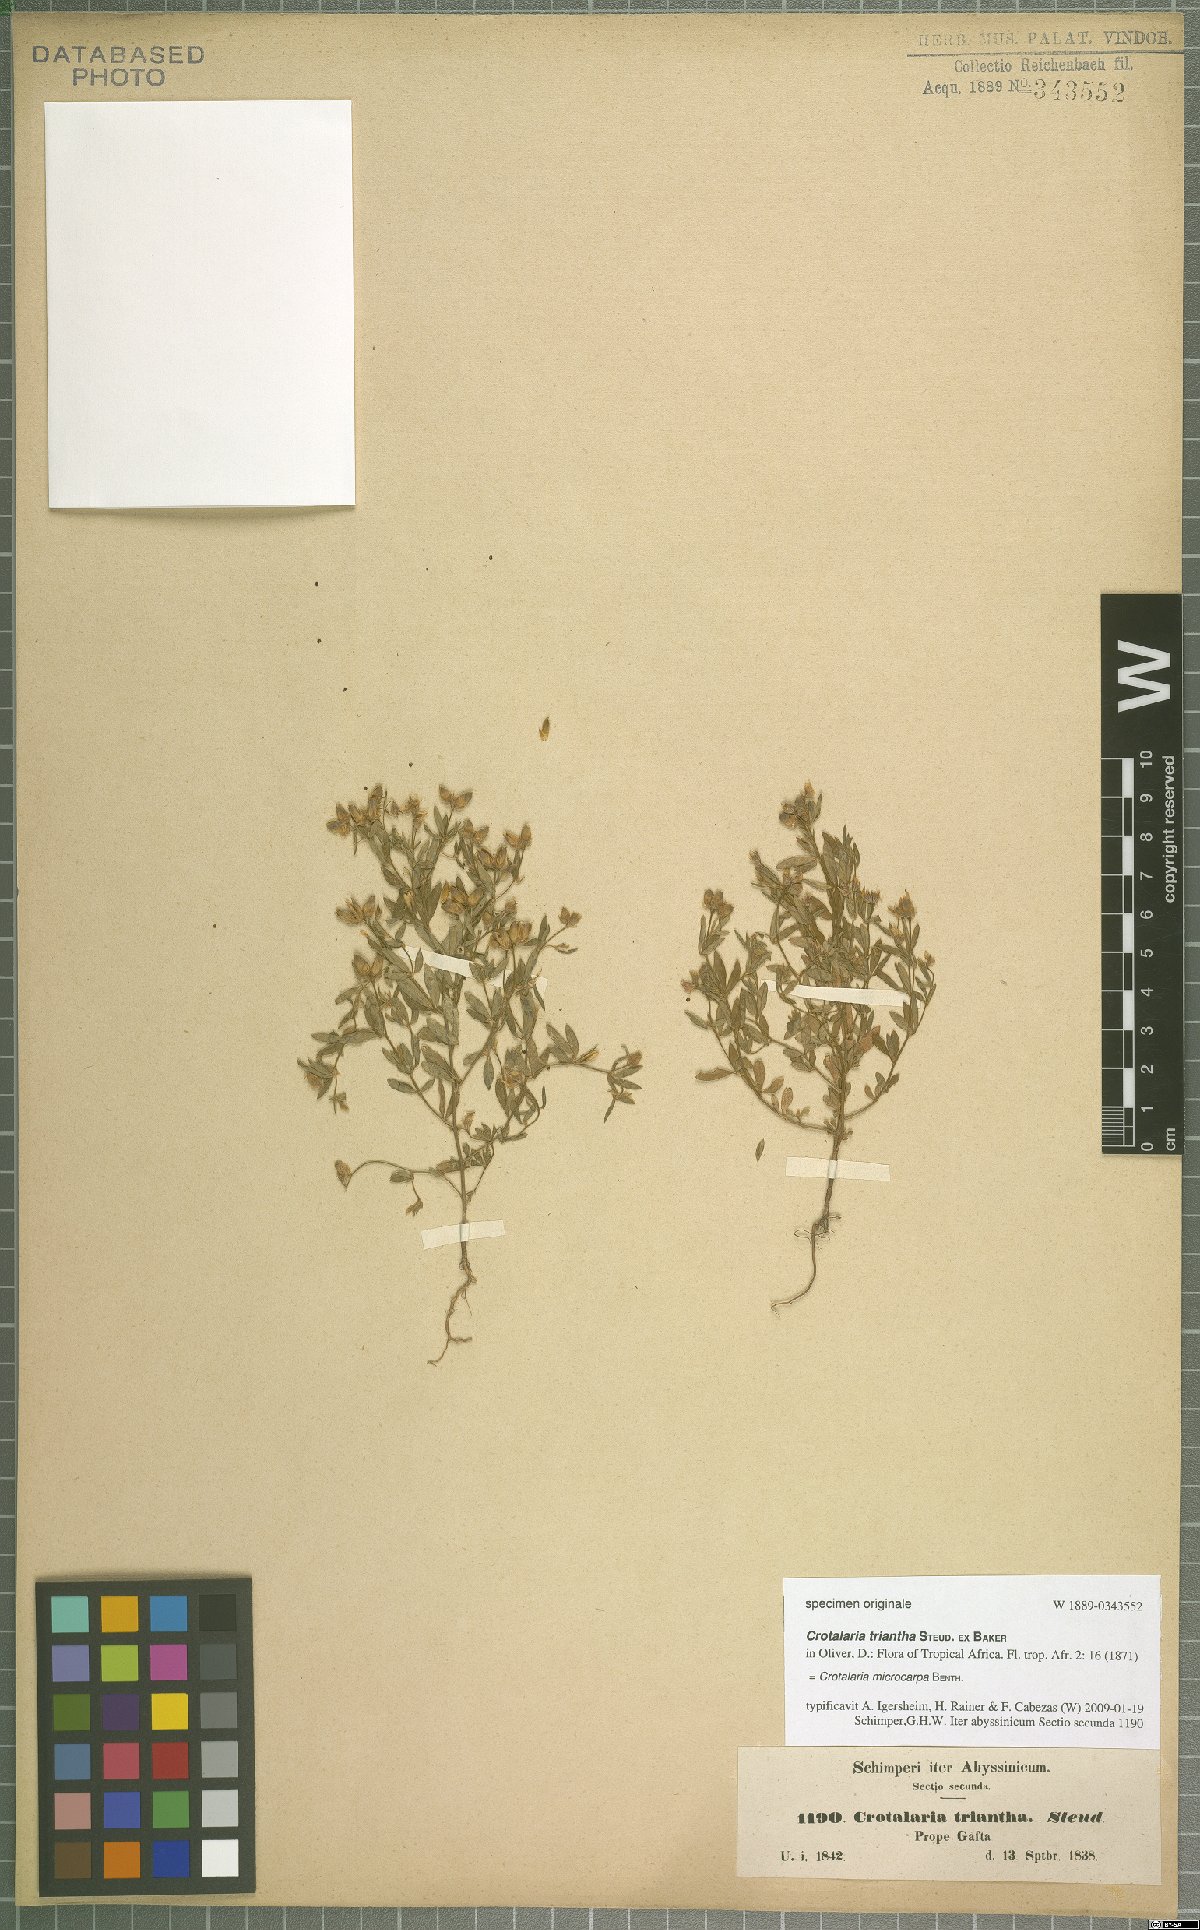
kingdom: Plantae
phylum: Tracheophyta
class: Magnoliopsida
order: Fabales
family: Fabaceae
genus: Crotalaria
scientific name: Crotalaria microcarpa
